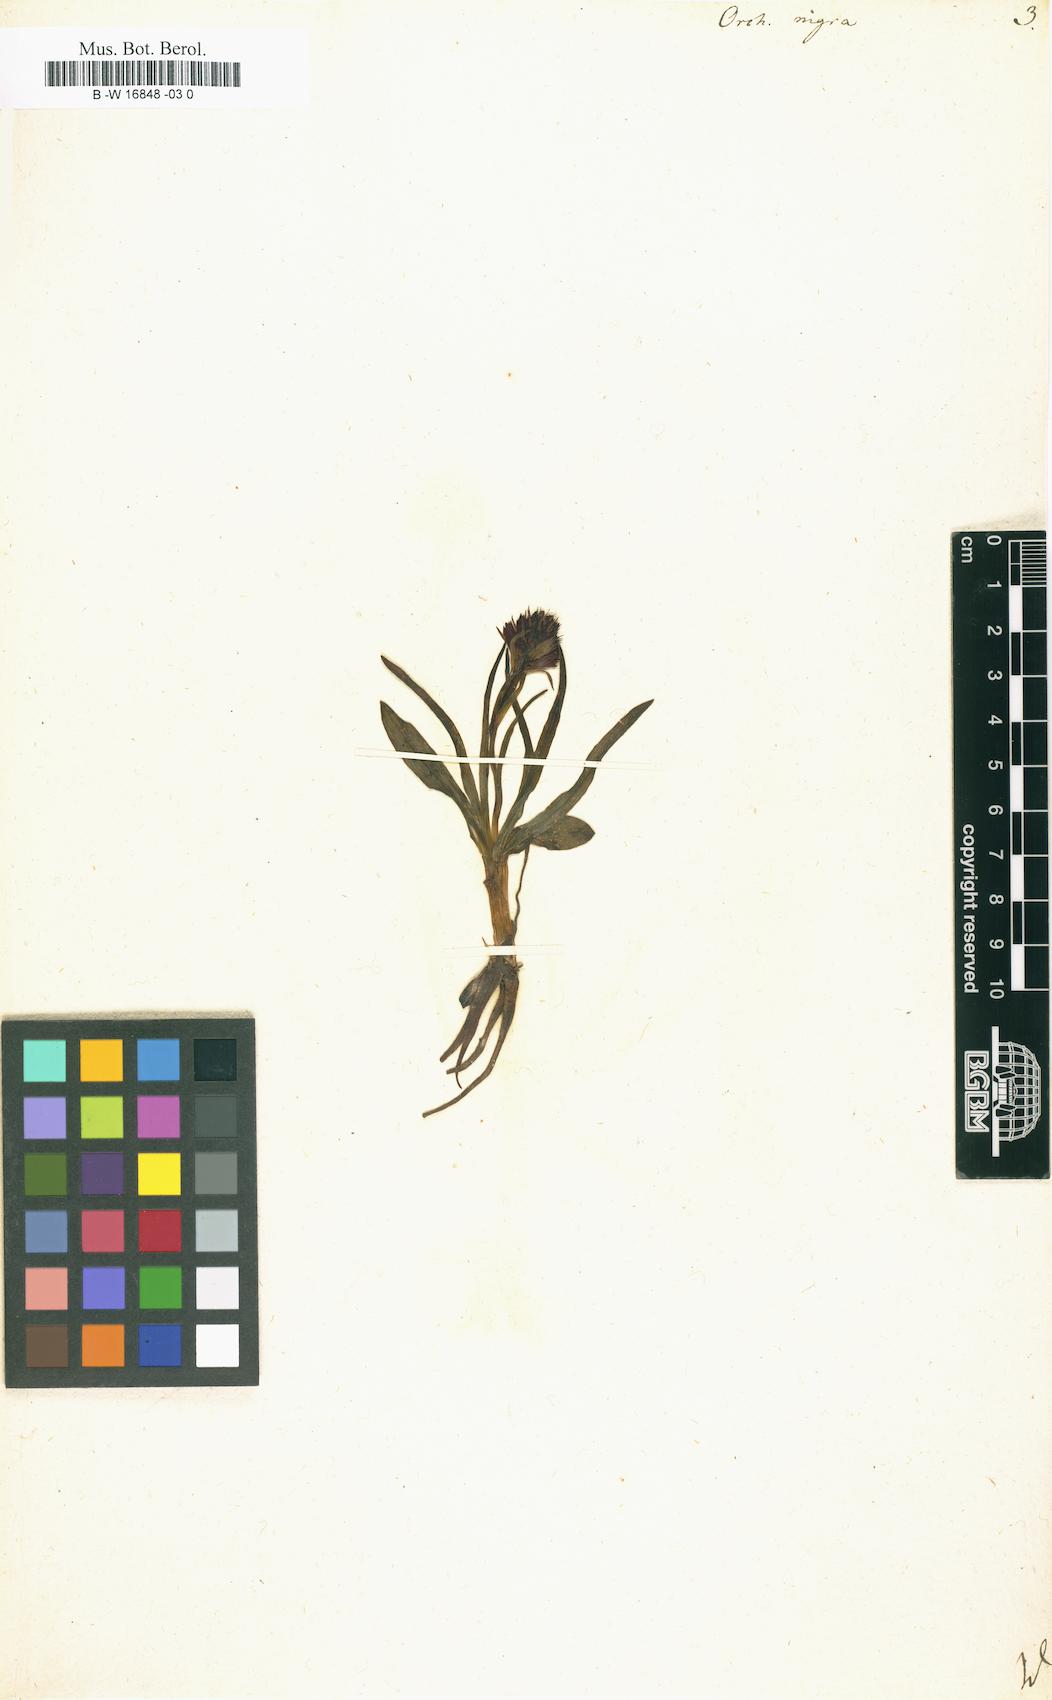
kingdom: Plantae
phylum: Tracheophyta
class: Liliopsida
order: Asparagales
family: Orchidaceae
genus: Gymnadenia
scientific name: Gymnadenia nigra
